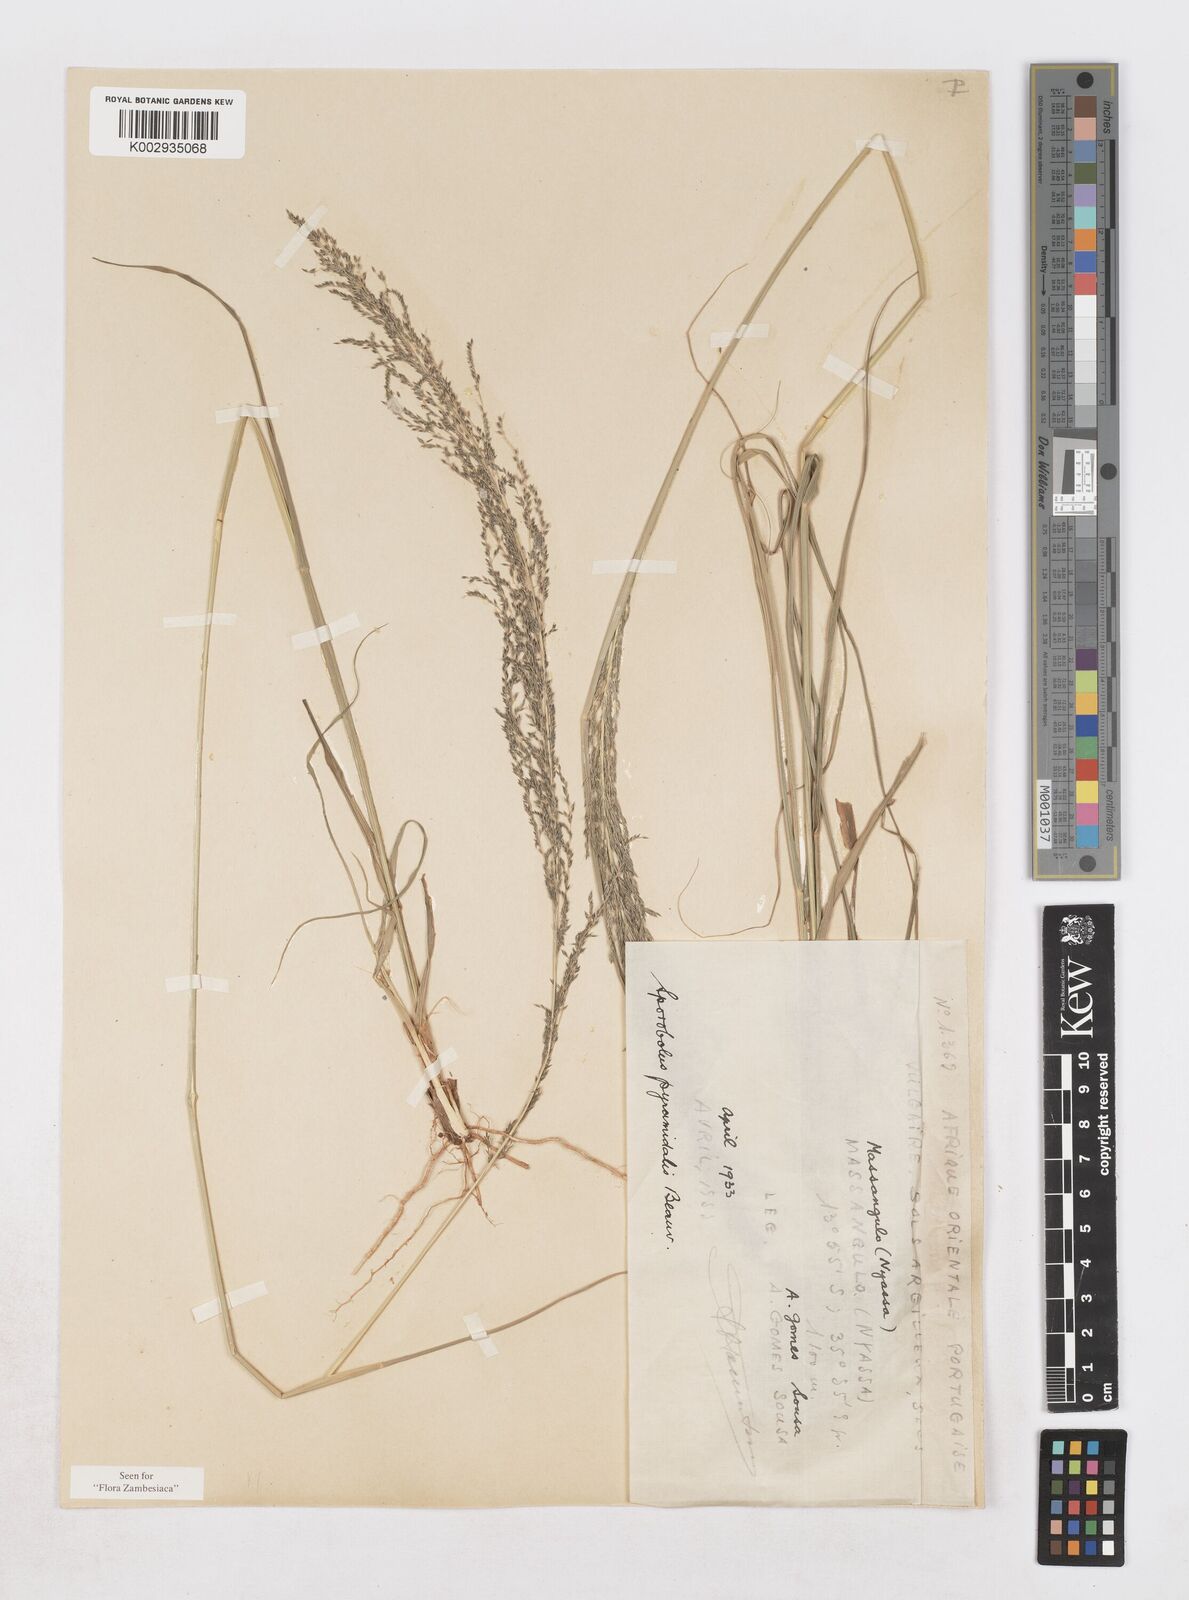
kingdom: Plantae
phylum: Tracheophyta
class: Liliopsida
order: Poales
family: Poaceae
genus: Sporobolus
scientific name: Sporobolus pyramidalis
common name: West indian dropseed
